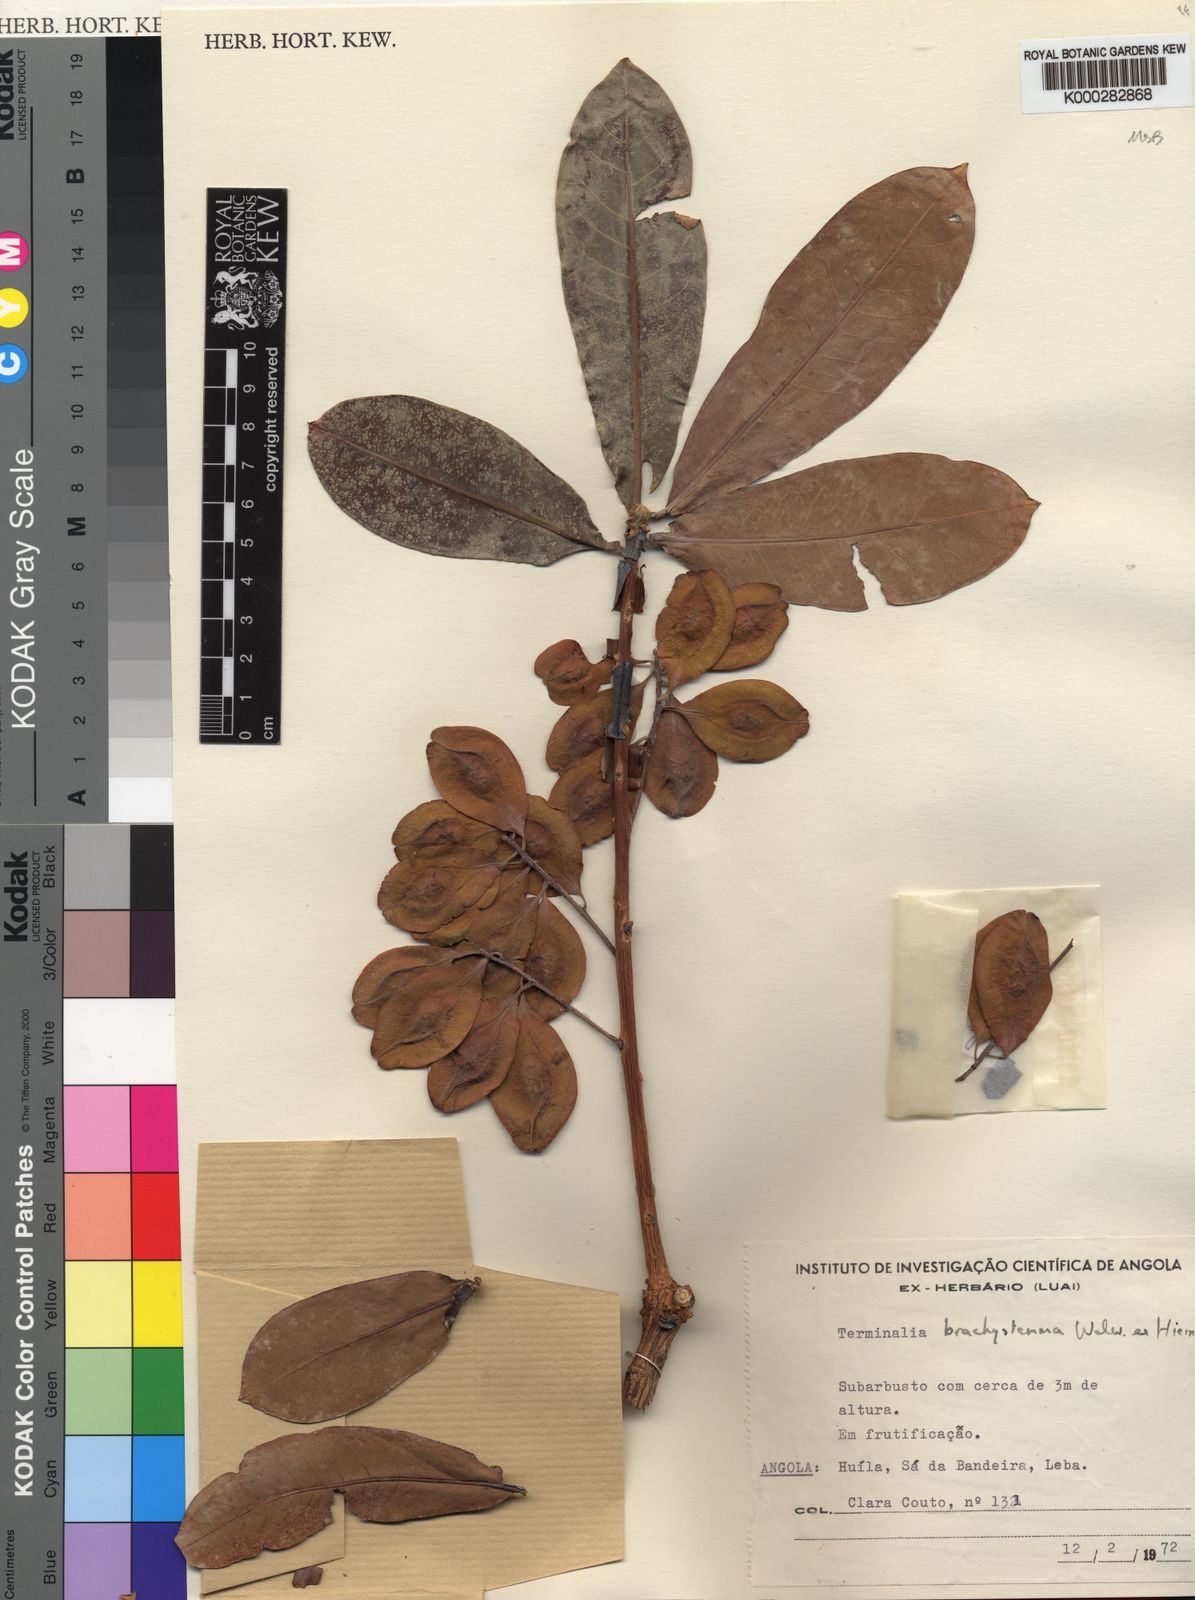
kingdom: Plantae
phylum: Tracheophyta
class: Magnoliopsida
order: Myrtales
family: Combretaceae
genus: Terminalia
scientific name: Terminalia brachystemma
